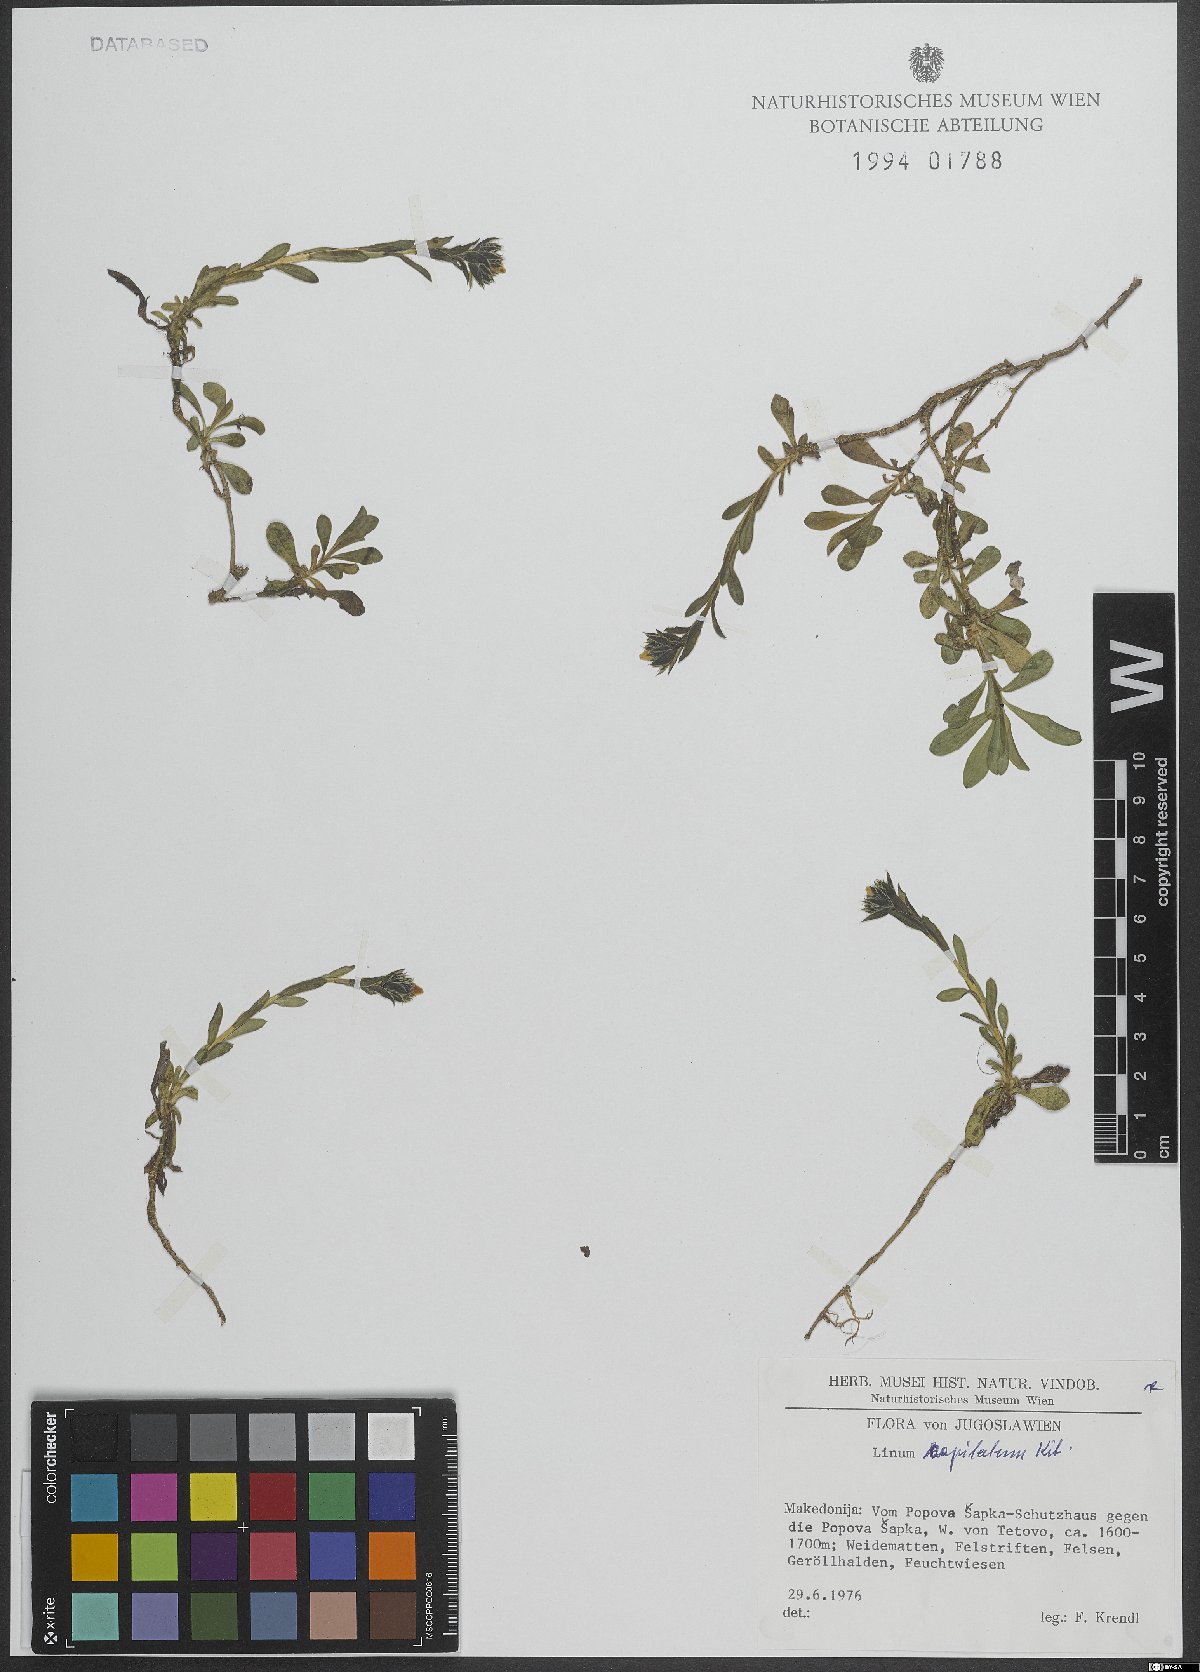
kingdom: Plantae
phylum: Tracheophyta
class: Magnoliopsida
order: Malpighiales
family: Linaceae
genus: Linum
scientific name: Linum capitatum
